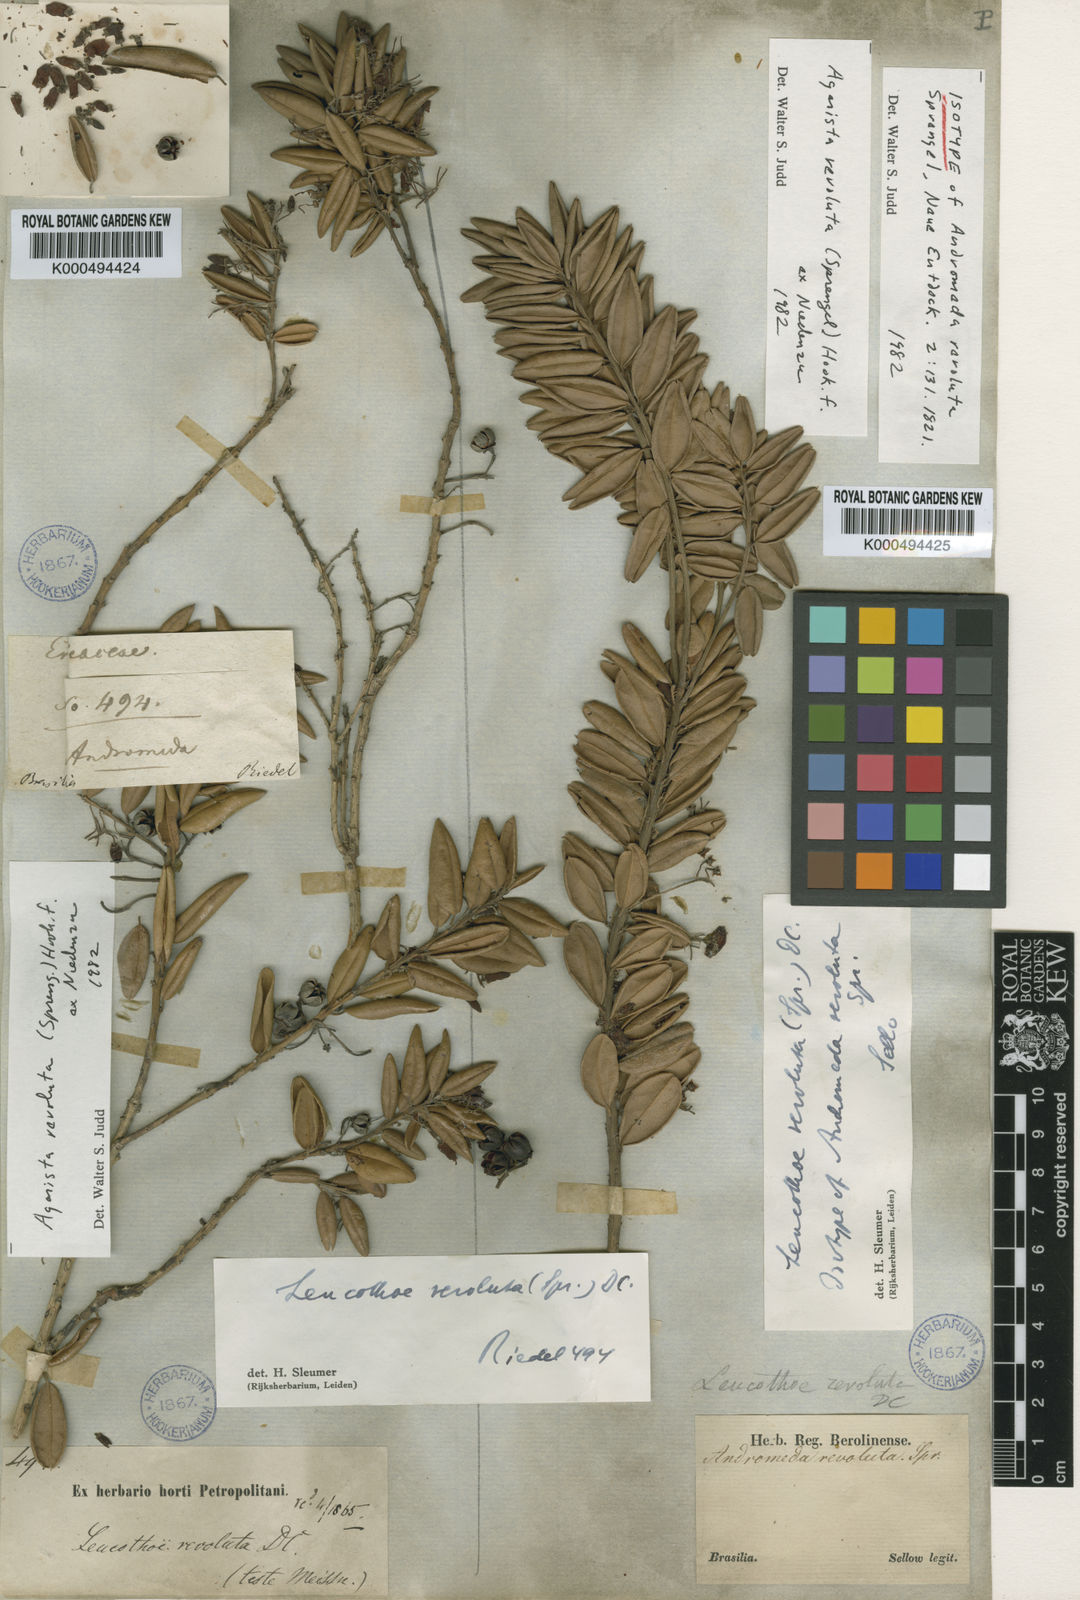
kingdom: Plantae
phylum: Tracheophyta
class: Magnoliopsida
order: Ericales
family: Ericaceae
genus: Agarista
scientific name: Agarista revoluta
